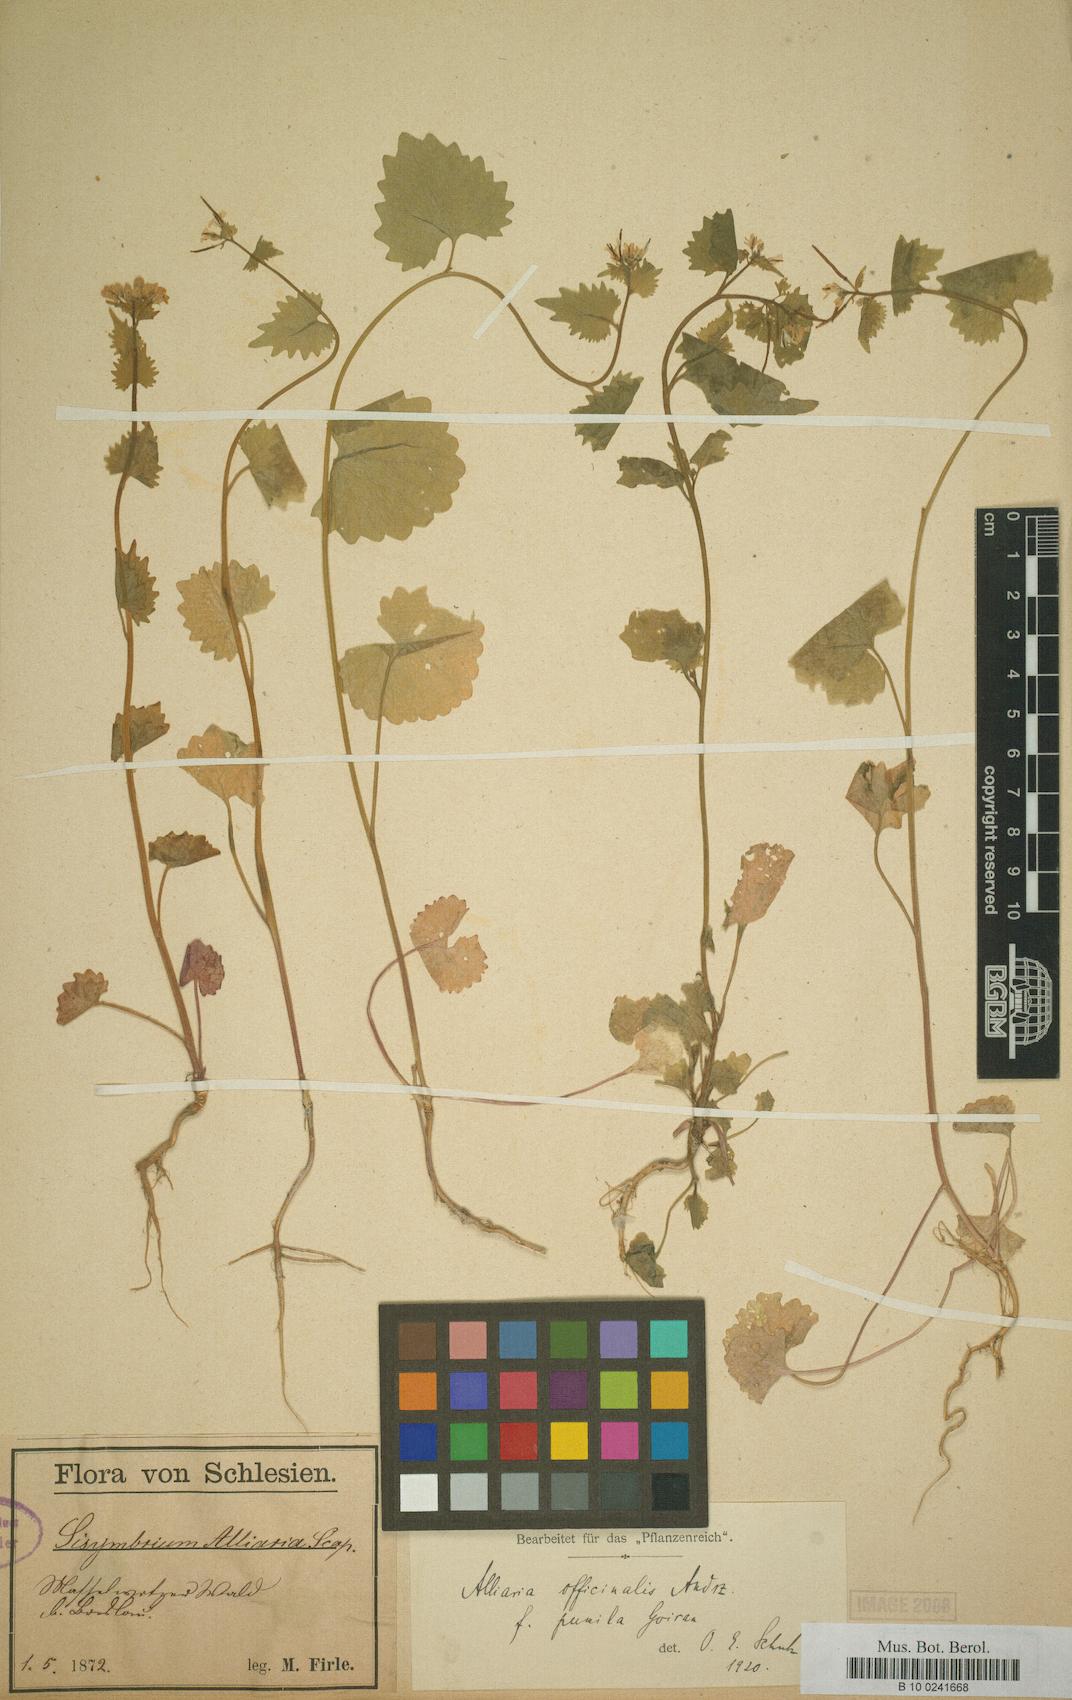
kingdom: Plantae
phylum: Tracheophyta
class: Magnoliopsida
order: Brassicales
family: Brassicaceae
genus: Alliaria
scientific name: Alliaria petiolata
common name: Garlic mustard
